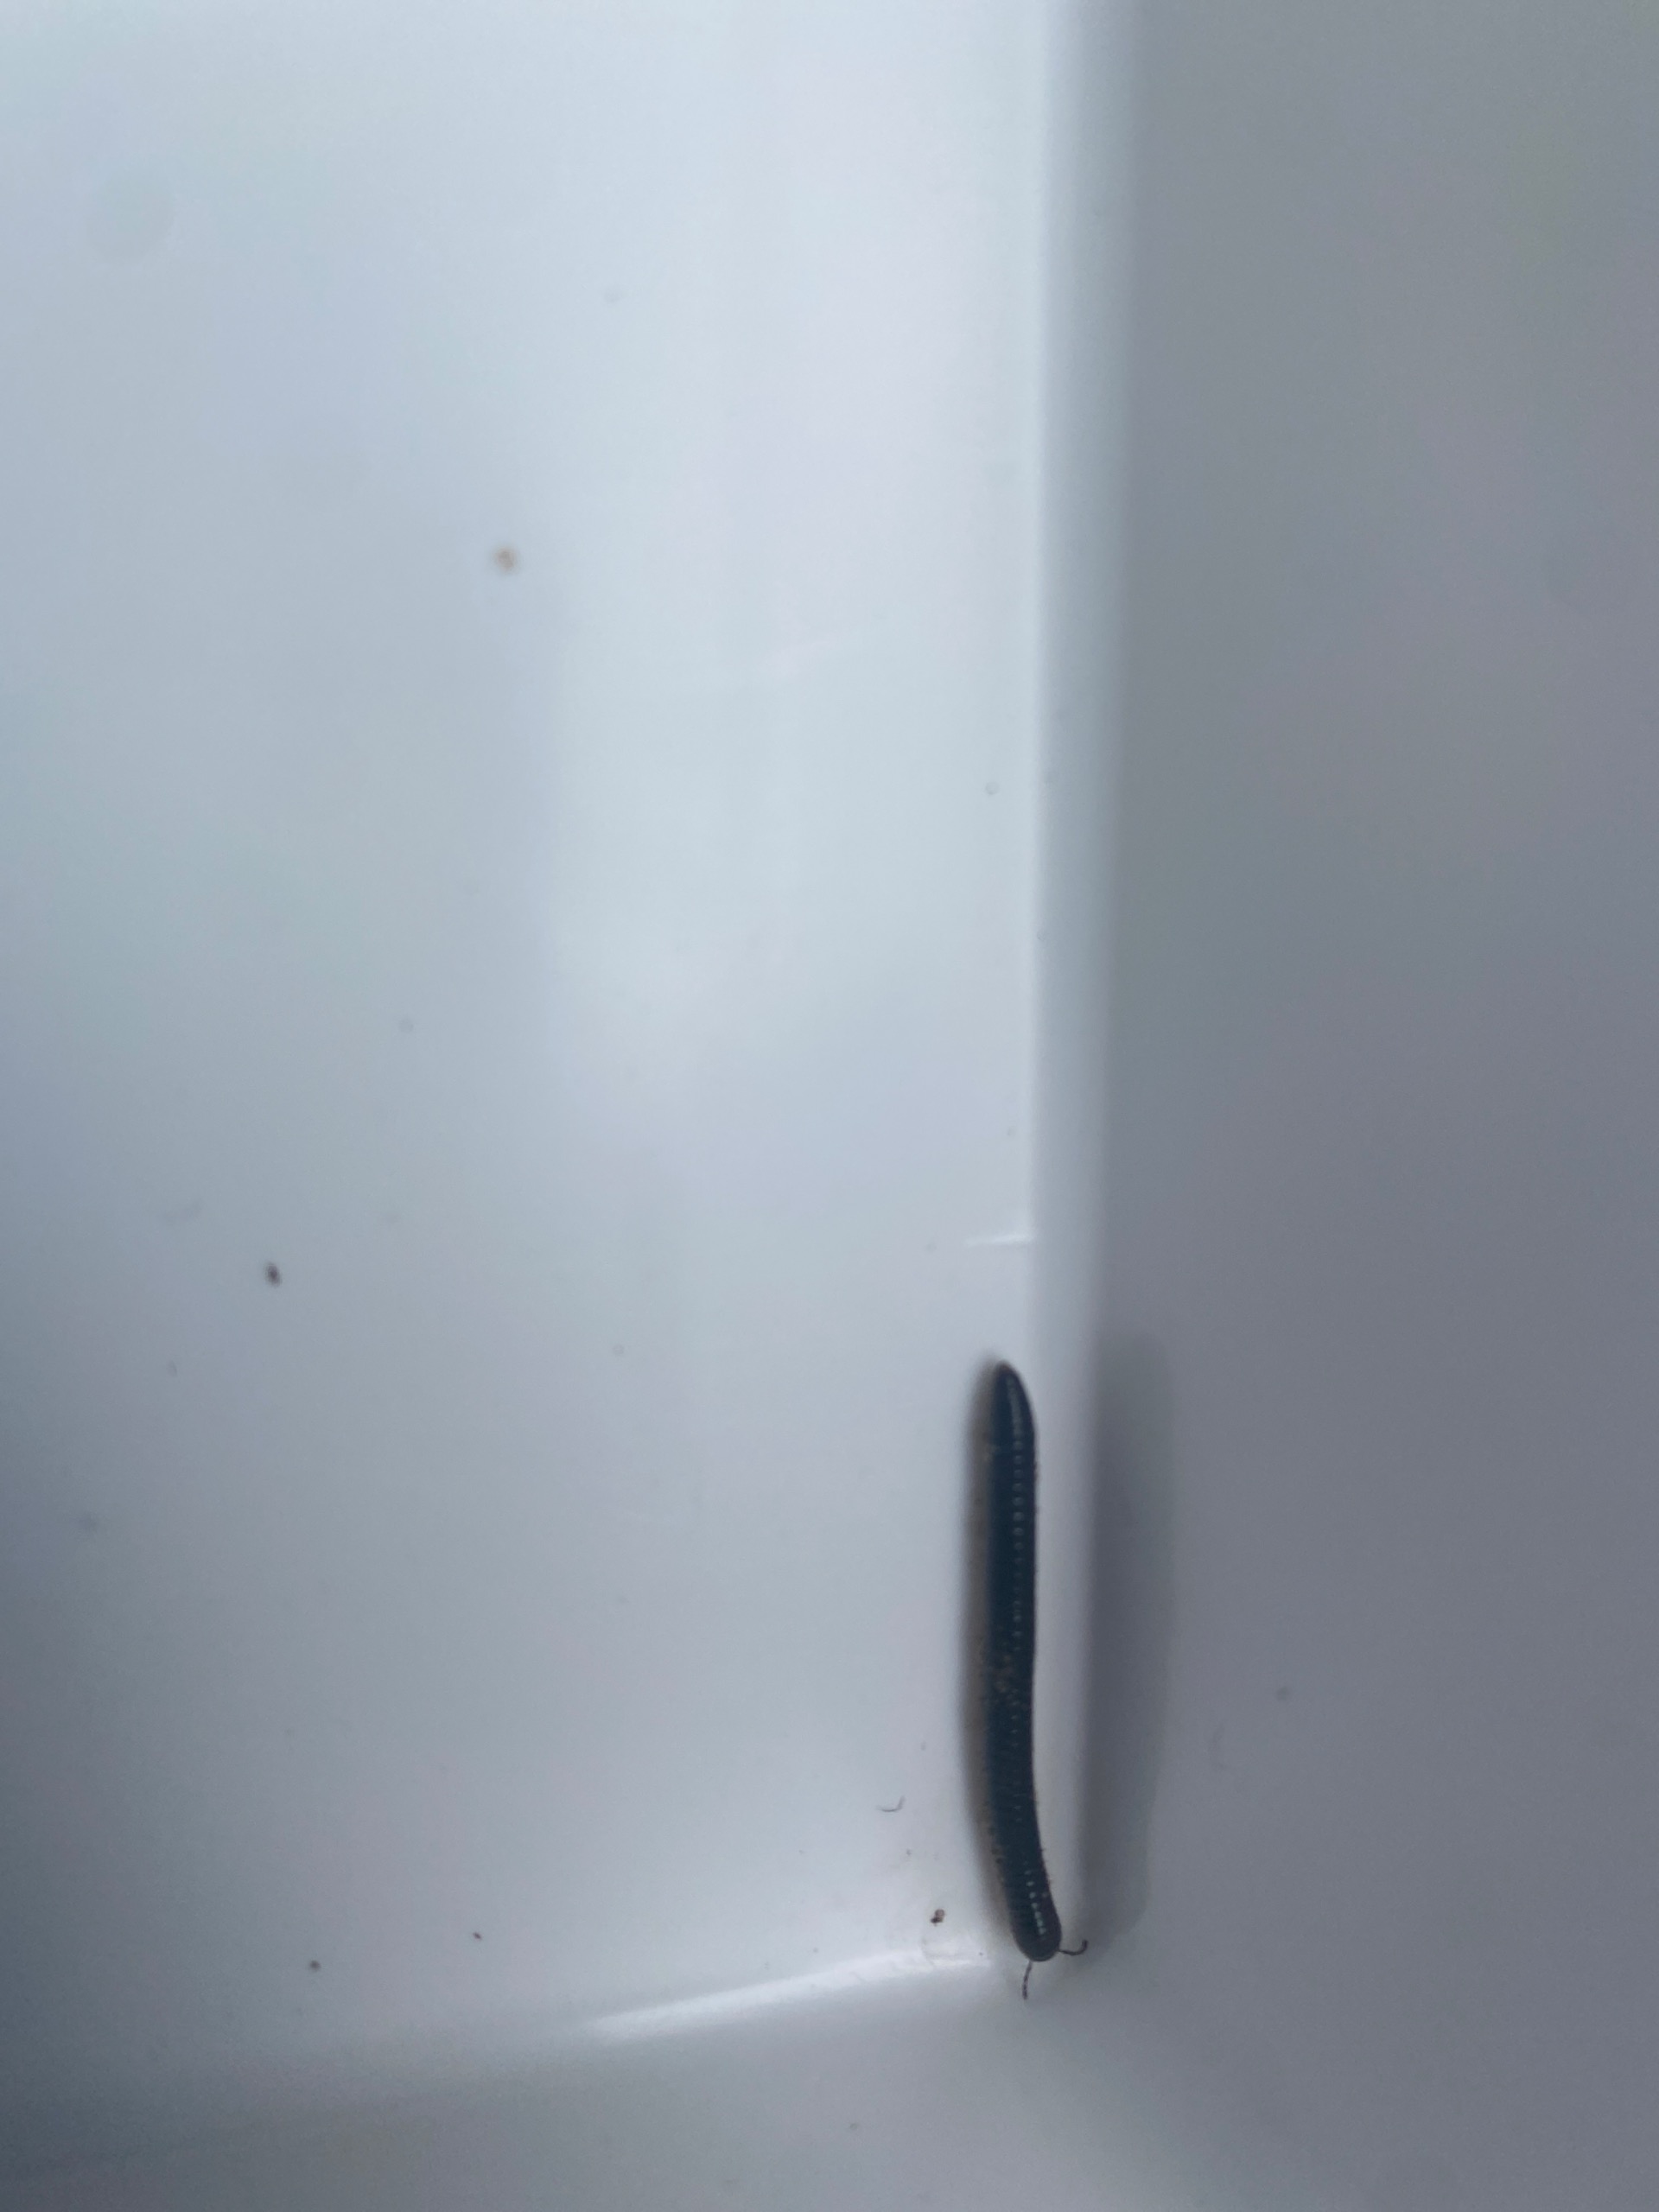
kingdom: Animalia
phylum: Arthropoda
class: Diplopoda
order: Julida
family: Julidae
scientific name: Julidae
